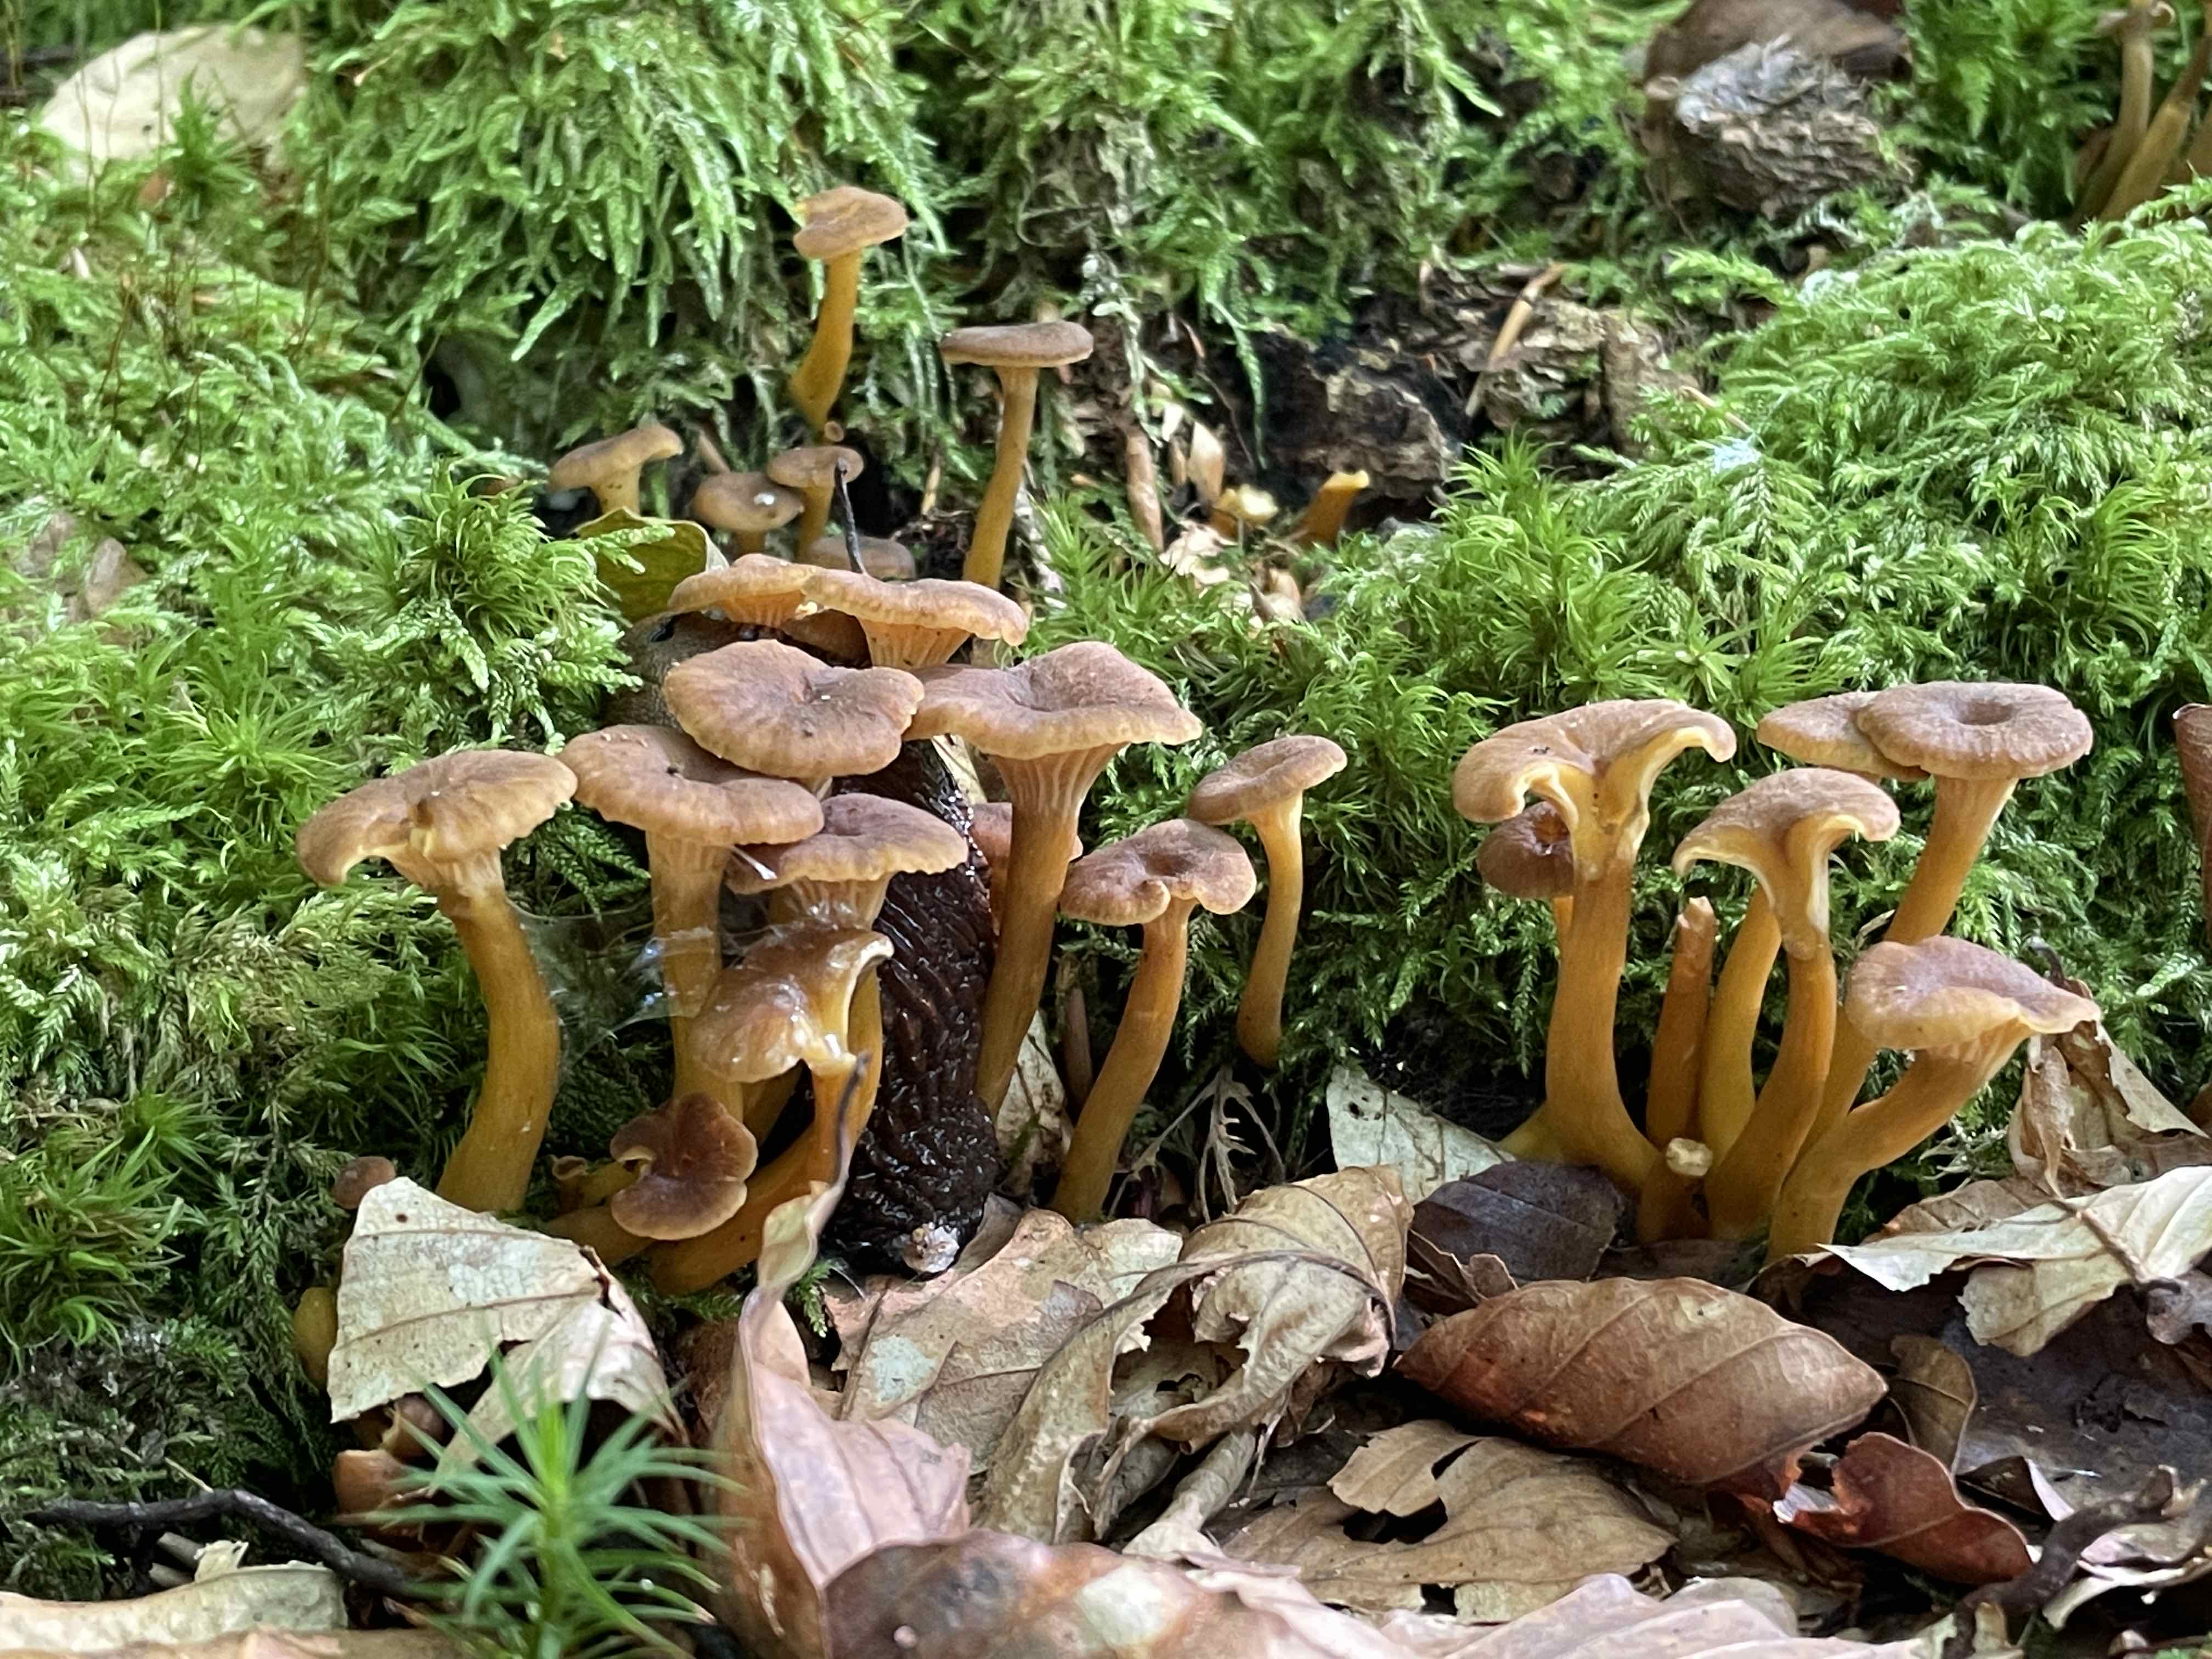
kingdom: Fungi
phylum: Basidiomycota
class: Agaricomycetes
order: Cantharellales
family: Hydnaceae
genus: Craterellus
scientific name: Craterellus tubaeformis
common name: tragt-kantarel
